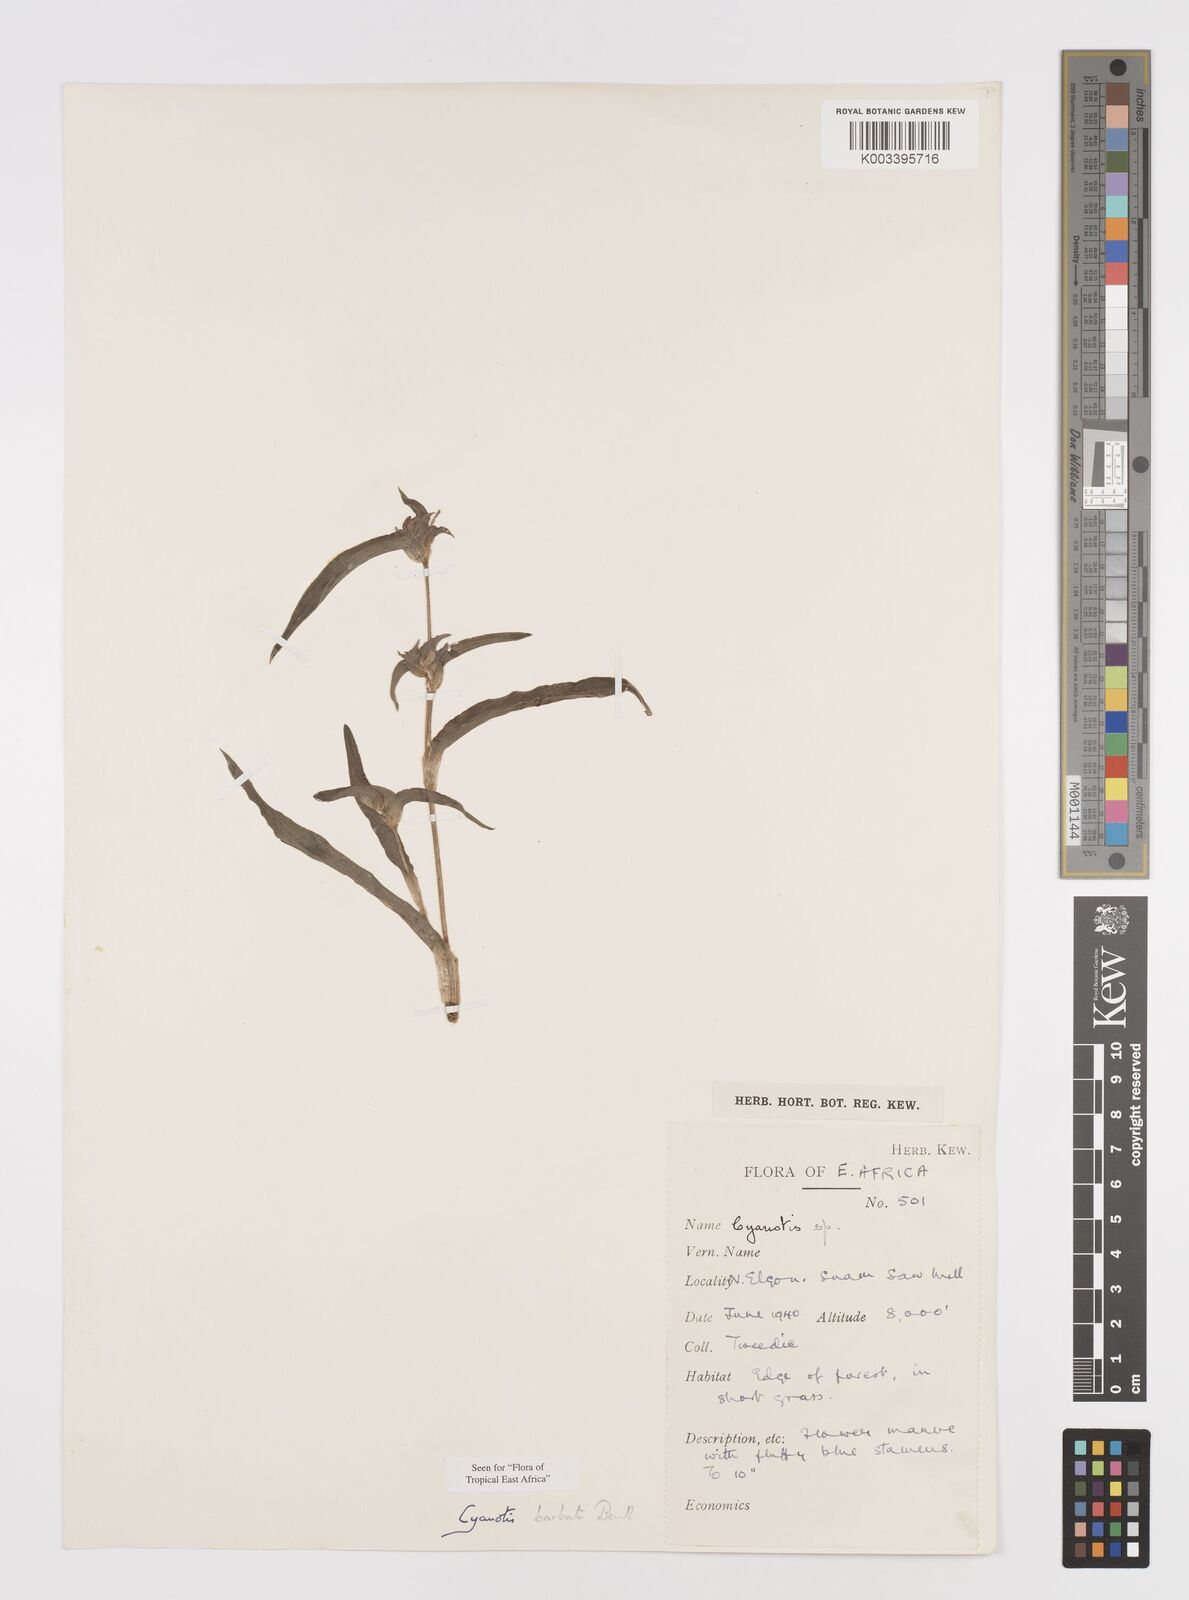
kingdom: Plantae
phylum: Tracheophyta
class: Liliopsida
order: Commelinales
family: Commelinaceae
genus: Cyanotis
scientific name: Cyanotis vaga
